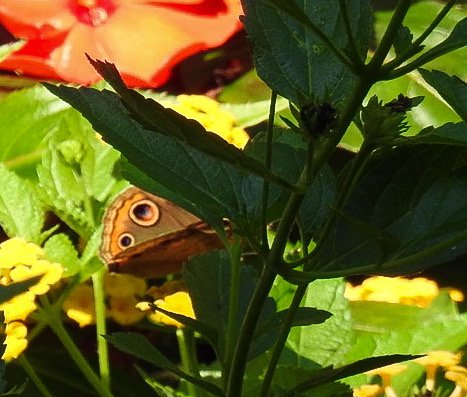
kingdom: Animalia
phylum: Arthropoda
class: Insecta
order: Lepidoptera
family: Nymphalidae
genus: Junonia
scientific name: Junonia coenia
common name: Common Buckeye
